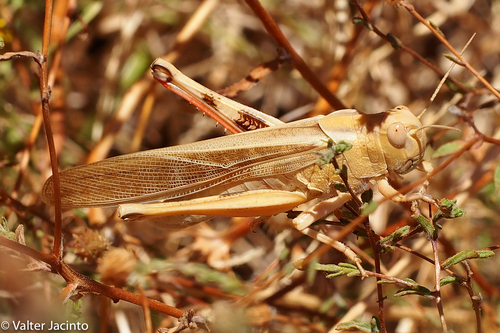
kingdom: Animalia
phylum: Arthropoda
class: Insecta
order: Orthoptera
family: Acrididae
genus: Locusta
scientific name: Locusta migratoria
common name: Migratory locust
